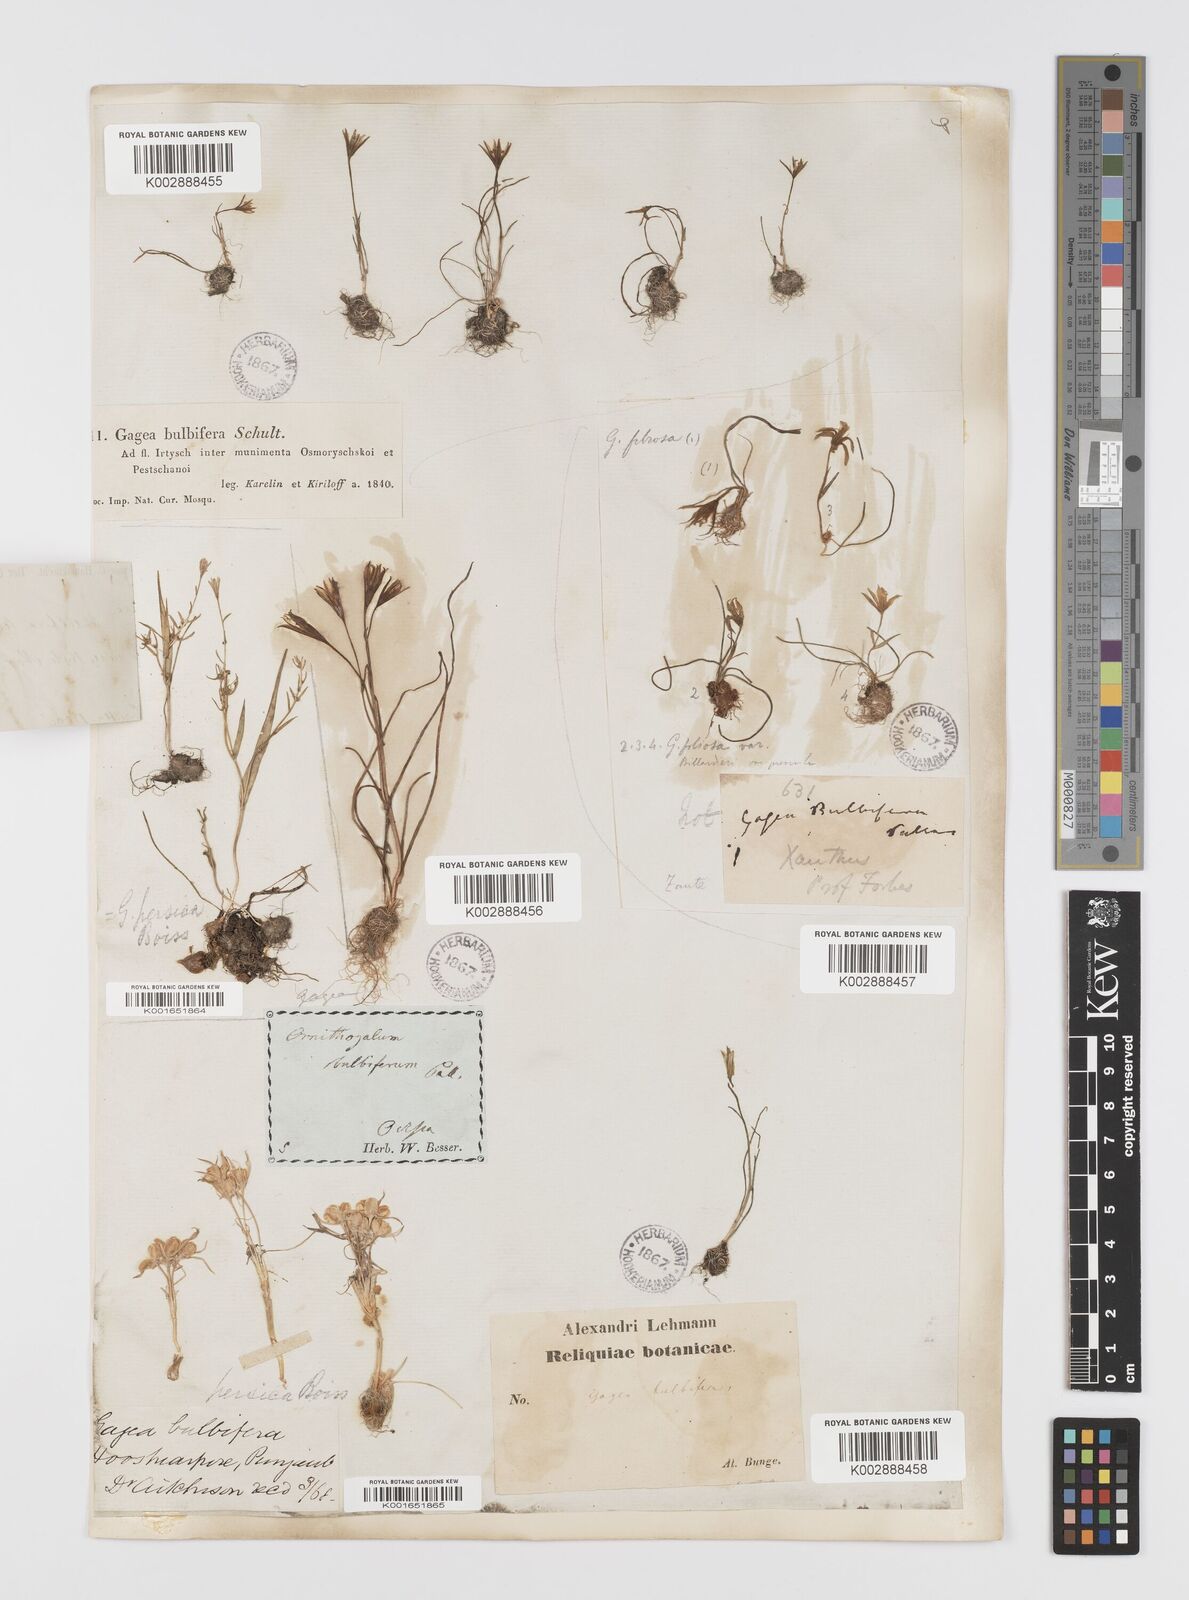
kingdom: Plantae
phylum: Tracheophyta
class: Liliopsida
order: Liliales
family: Liliaceae
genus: Gagea
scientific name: Gagea bulbifera
